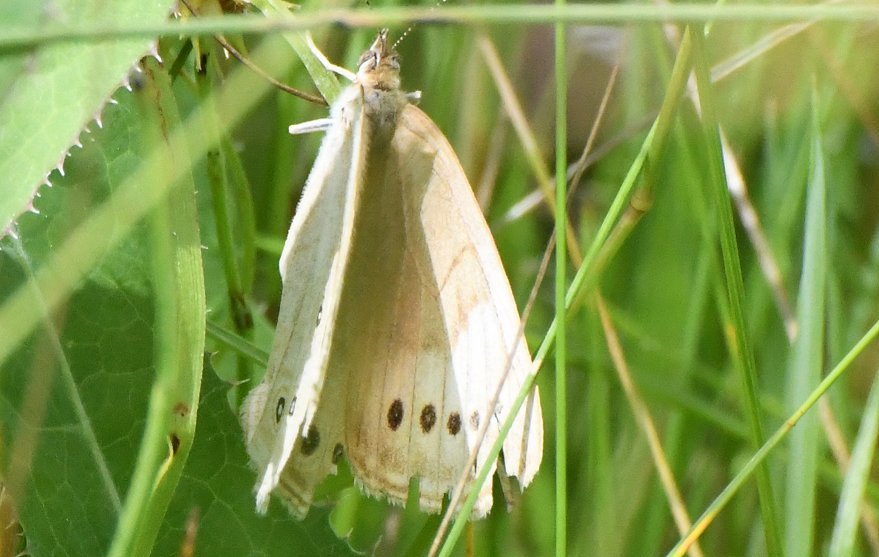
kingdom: Animalia
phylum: Arthropoda
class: Insecta
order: Lepidoptera
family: Nymphalidae
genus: Lethe
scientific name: Lethe eurydice
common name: Eyed Brown
